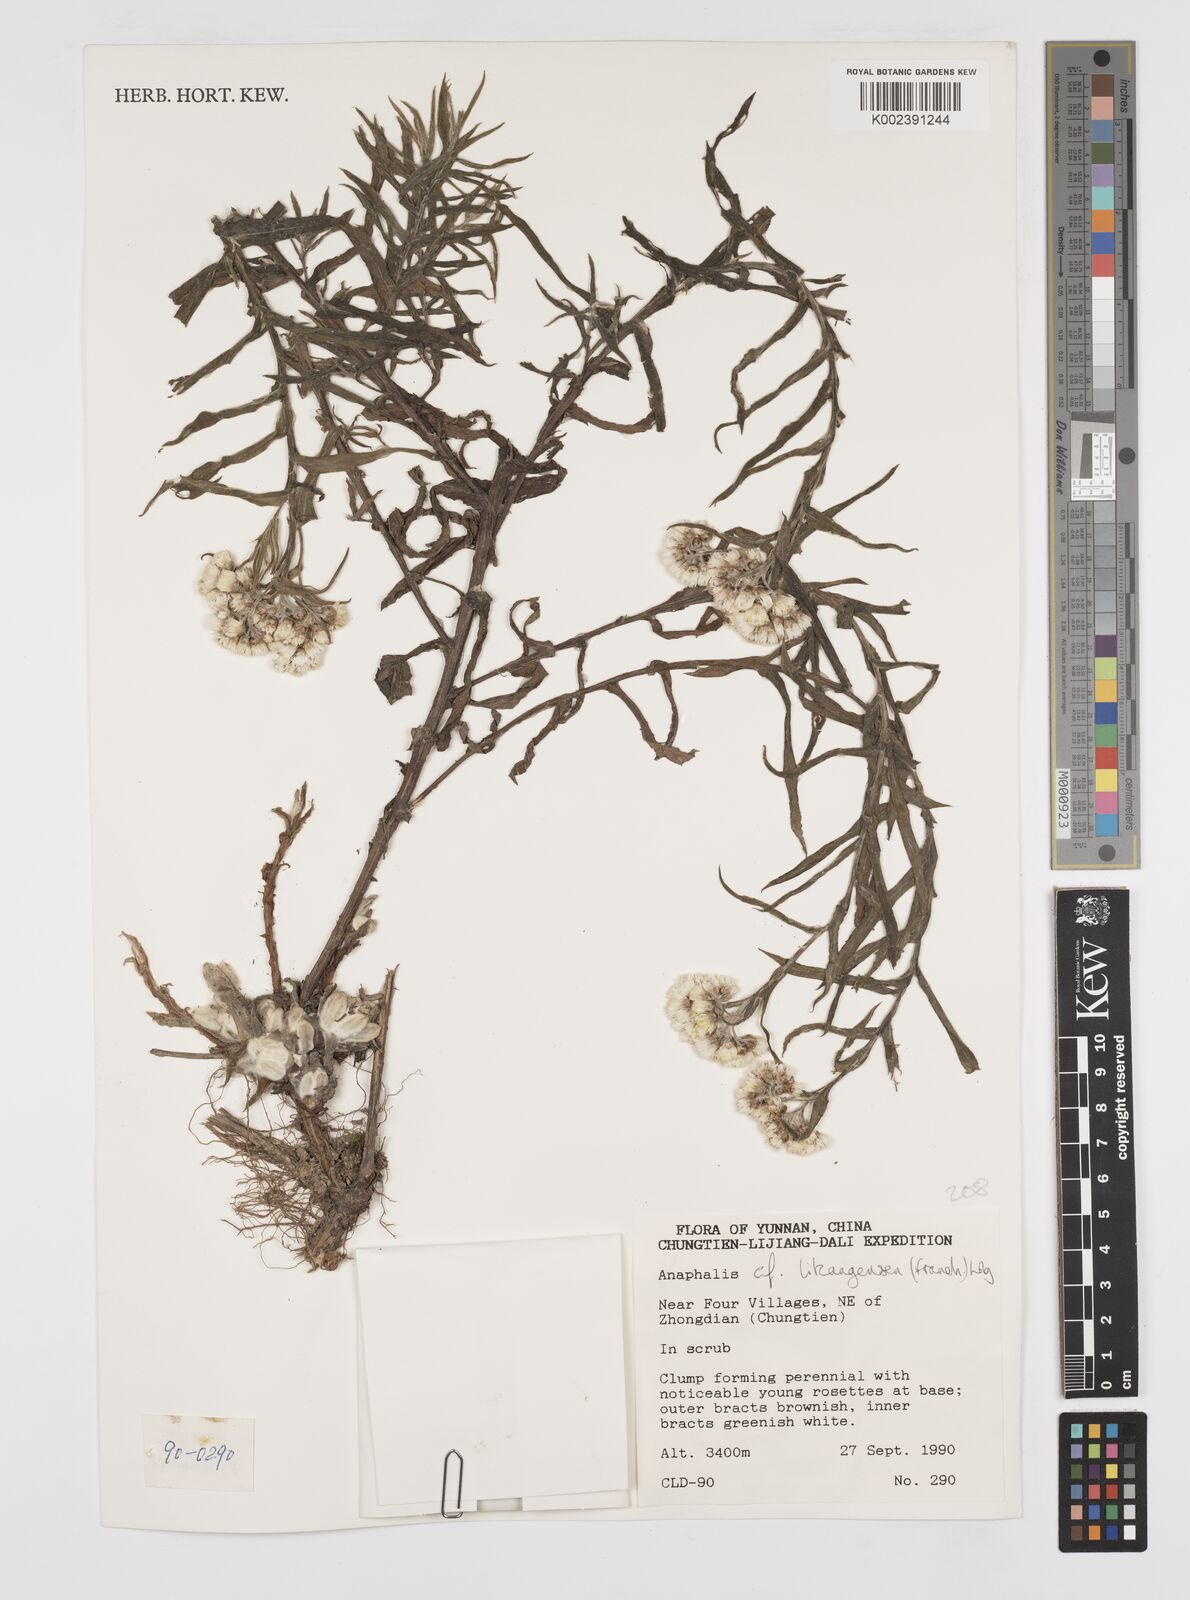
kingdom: Plantae
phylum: Tracheophyta
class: Magnoliopsida
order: Asterales
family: Asteraceae
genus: Anaphalis
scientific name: Anaphalis likiangensis
